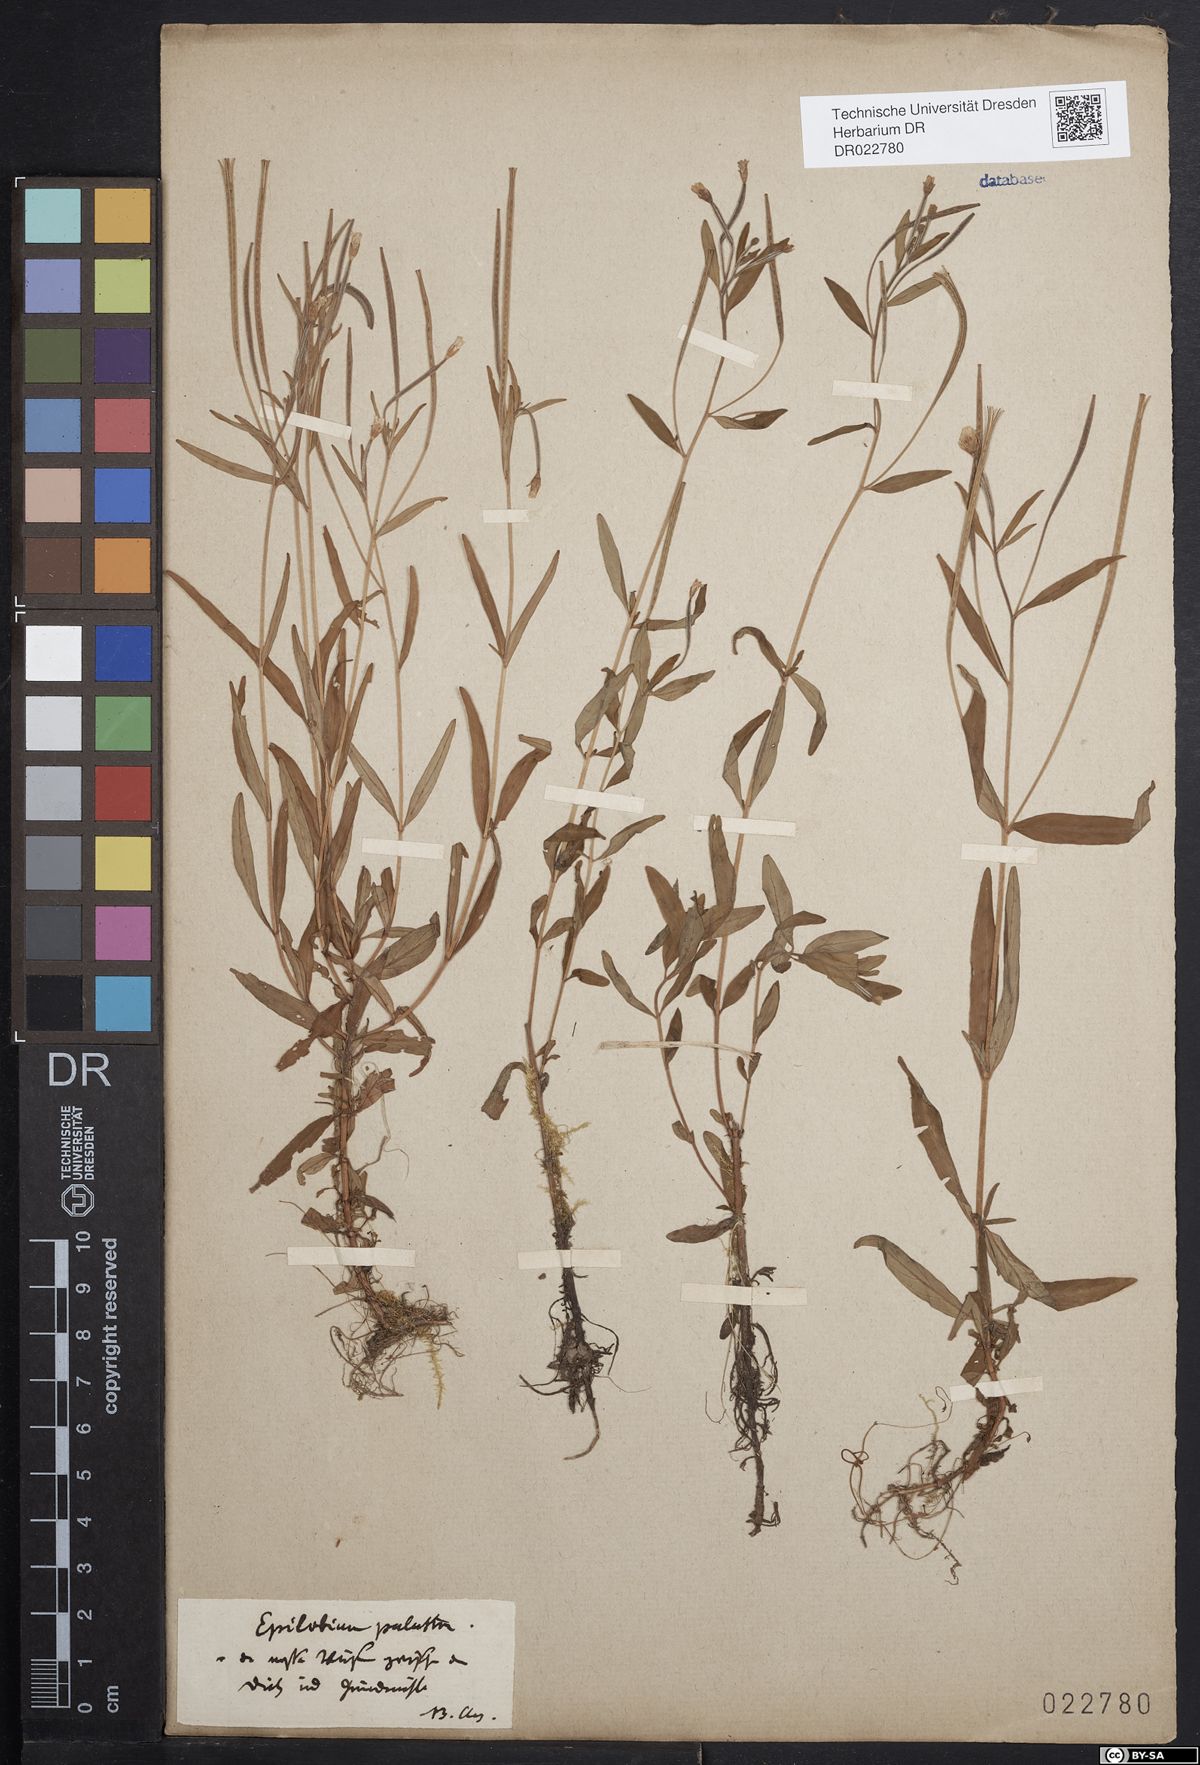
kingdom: Plantae
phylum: Tracheophyta
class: Magnoliopsida
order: Myrtales
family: Onagraceae
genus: Epilobium
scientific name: Epilobium palustre
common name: Marsh willowherb
